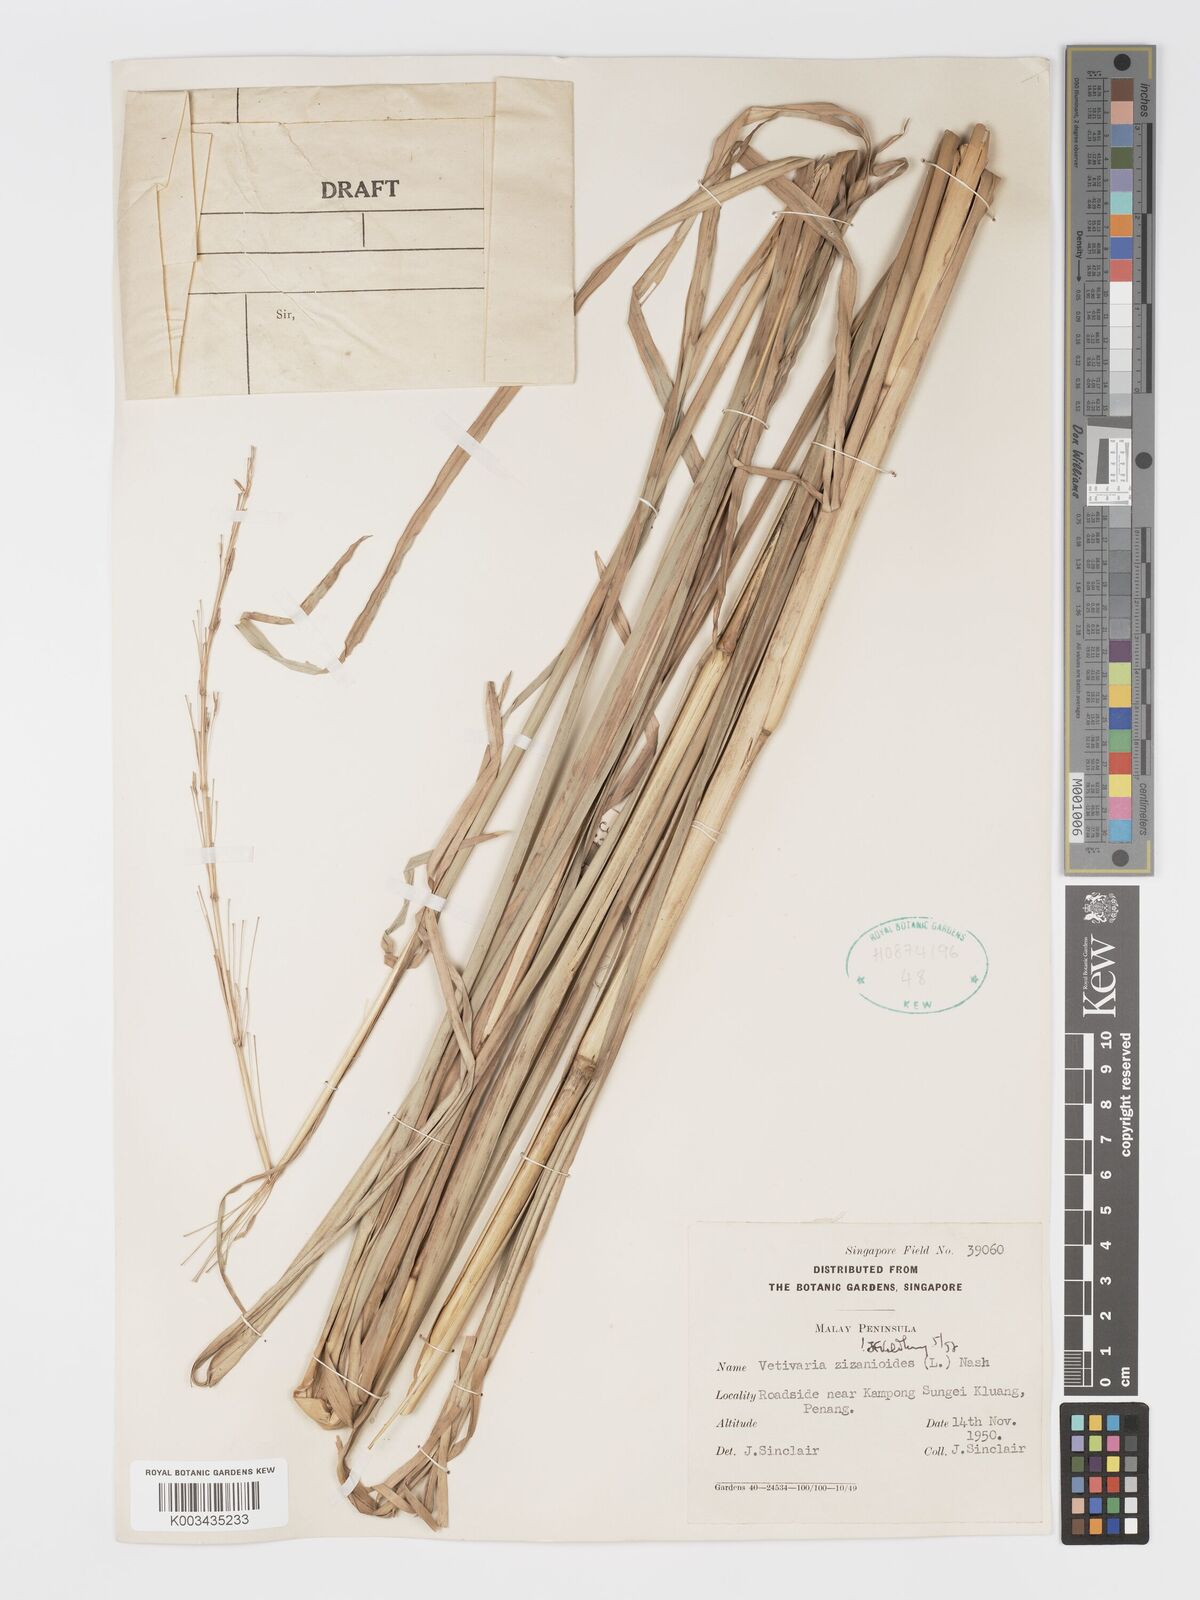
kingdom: Plantae
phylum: Tracheophyta
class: Liliopsida
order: Poales
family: Poaceae
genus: Chrysopogon
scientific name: Chrysopogon zizanioides
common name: False beardgrass
